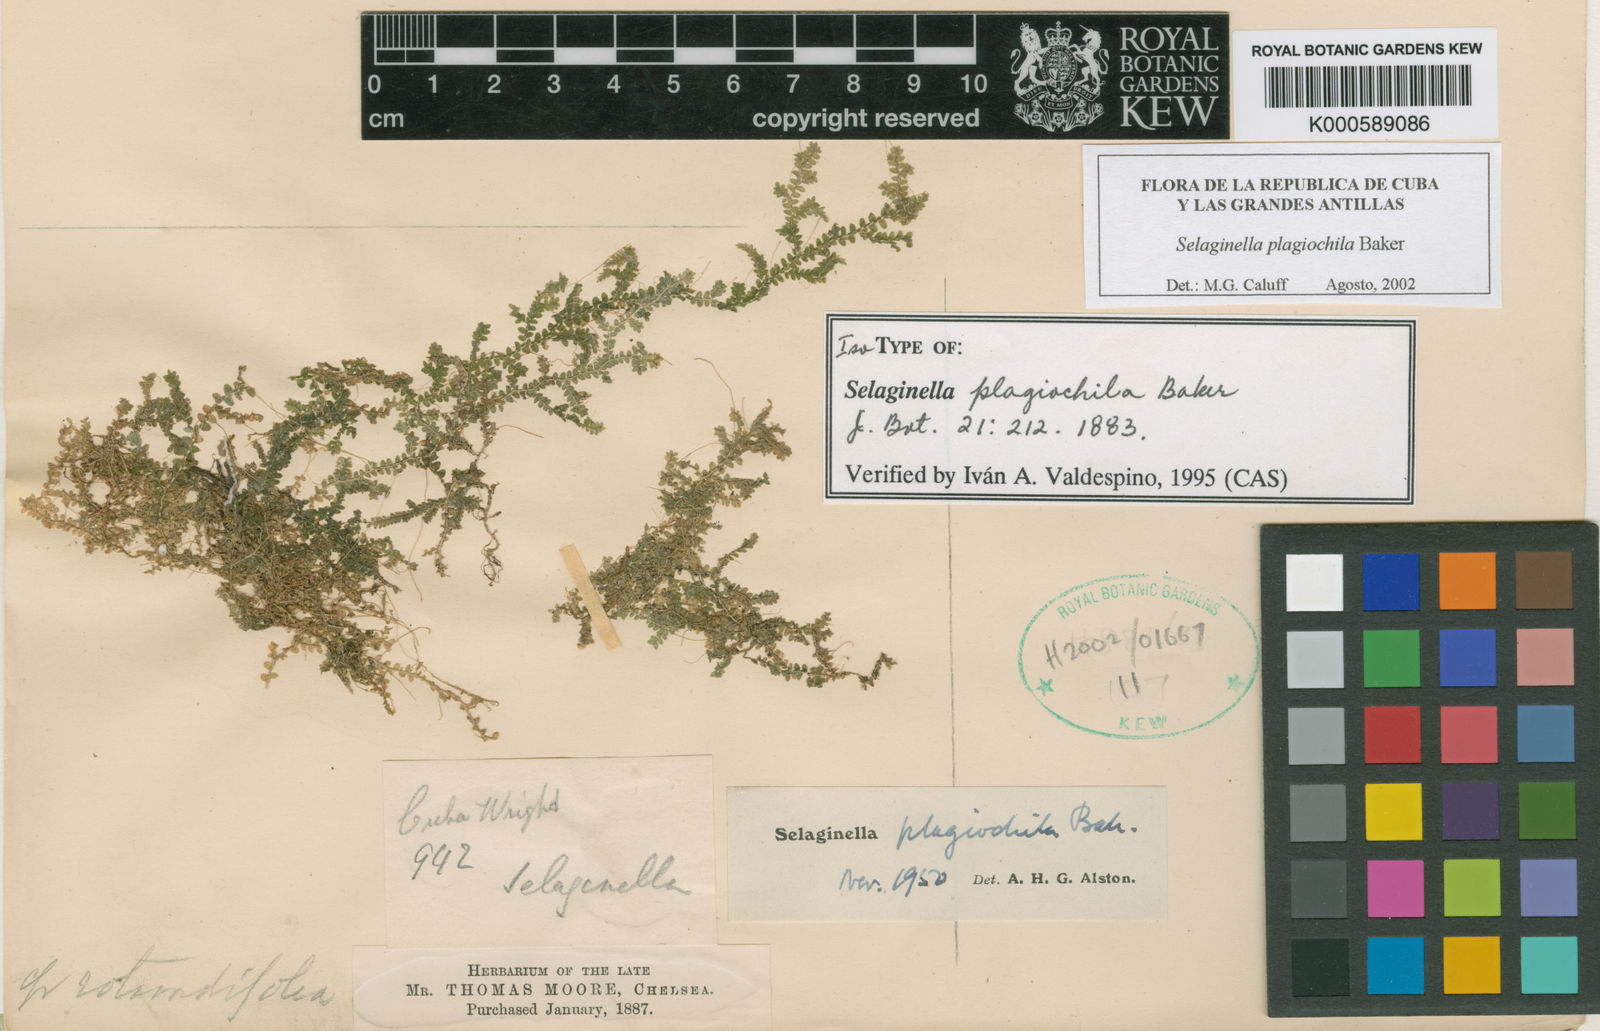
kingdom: Plantae
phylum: Tracheophyta
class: Lycopodiopsida
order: Selaginellales
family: Selaginellaceae
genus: Selaginella
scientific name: Selaginella plagiochila
